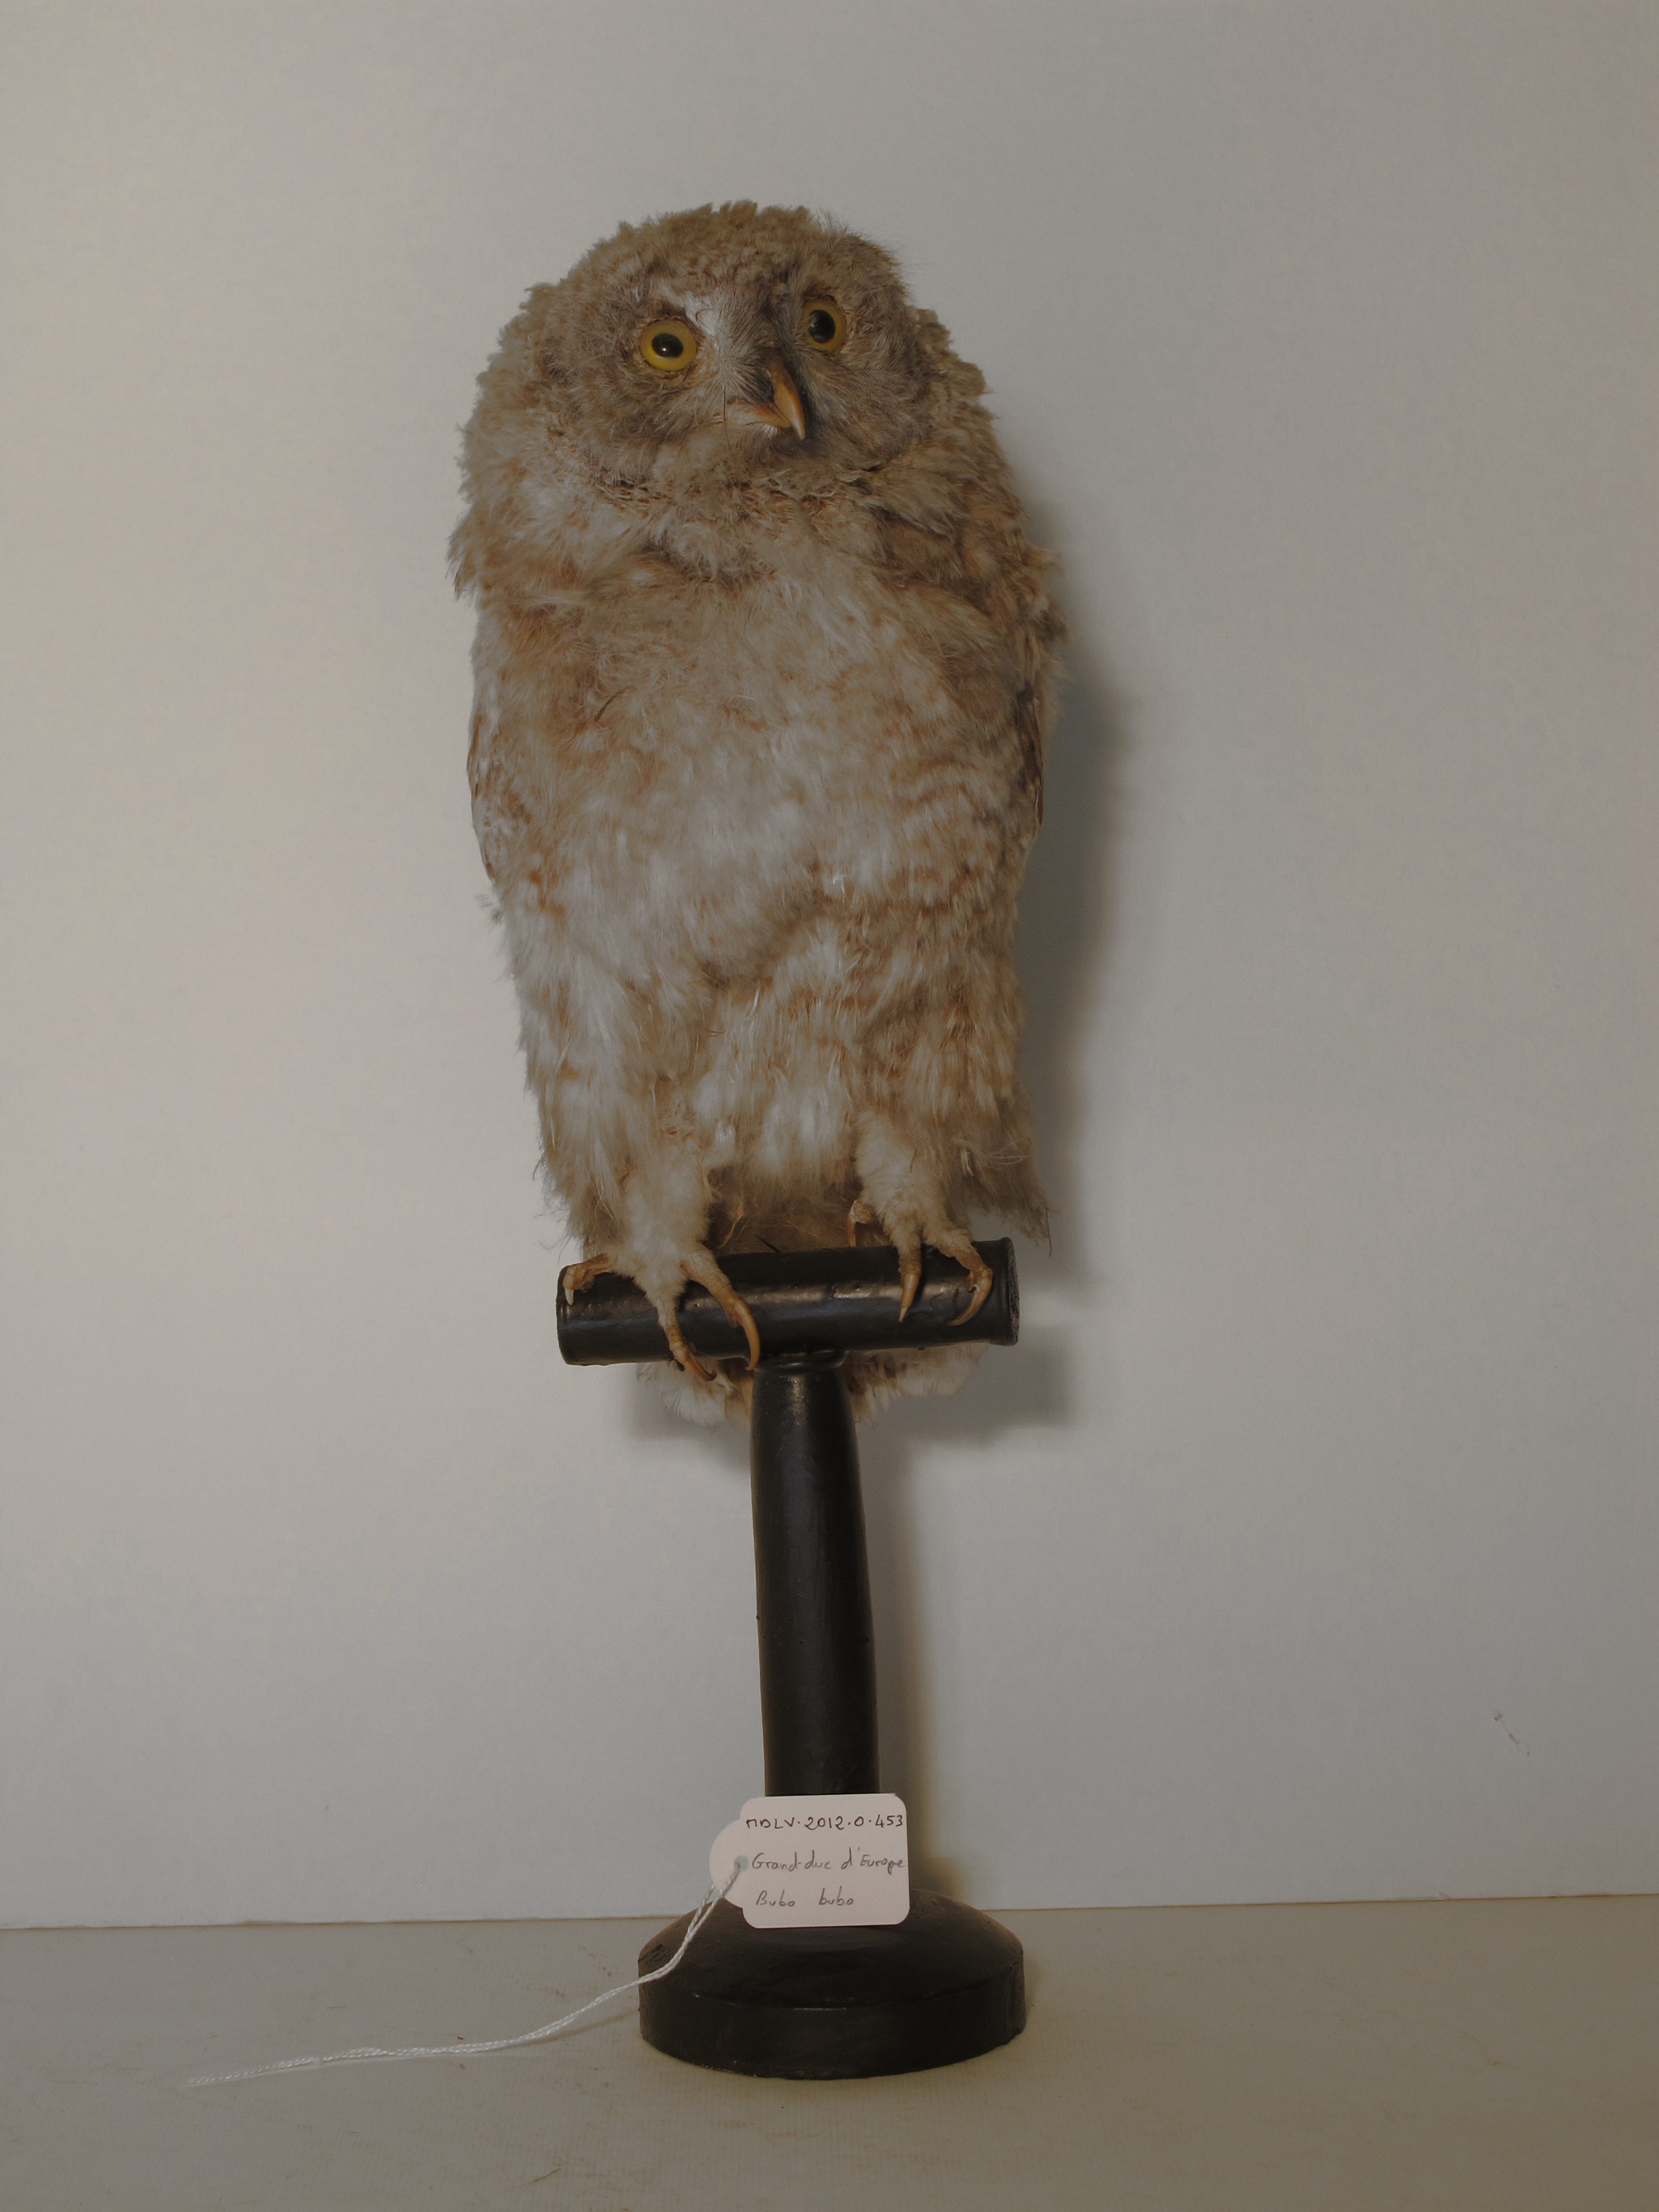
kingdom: Animalia
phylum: Chordata
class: Aves
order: Strigiformes
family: Strigidae
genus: Bubo
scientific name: Bubo bubo
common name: Eurasian Eagle-owl
